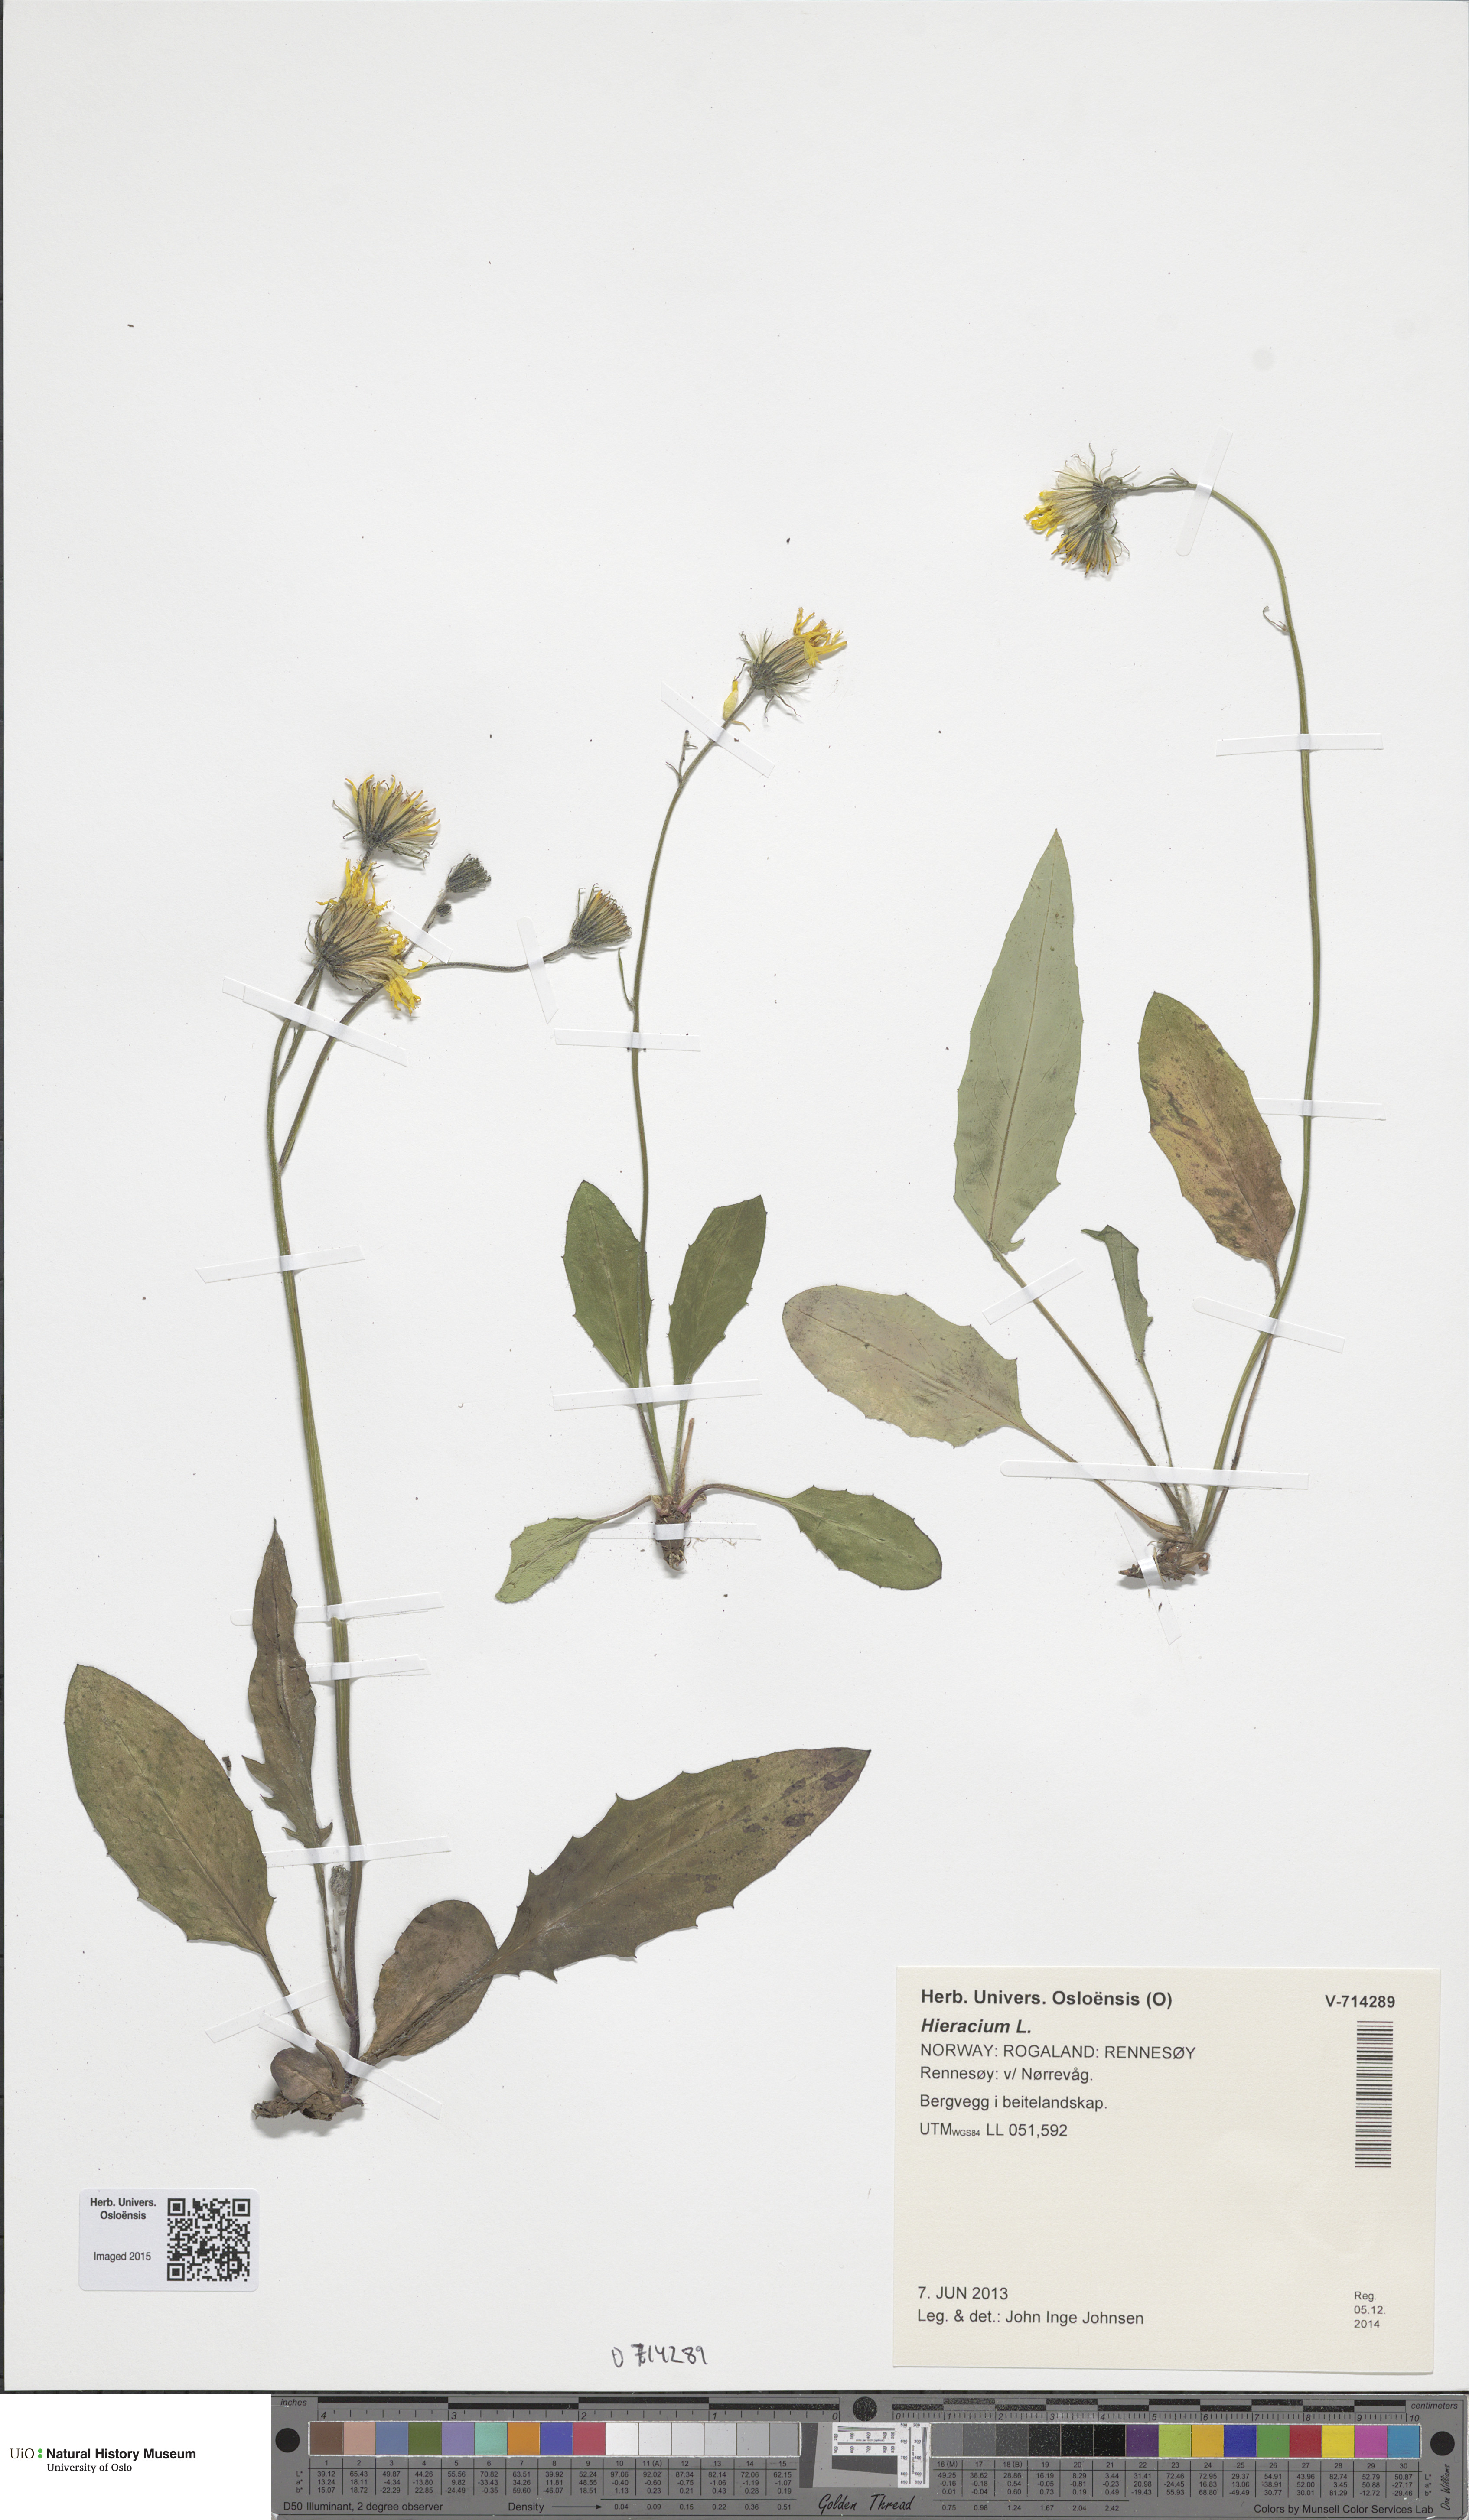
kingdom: Plantae
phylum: Tracheophyta
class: Magnoliopsida
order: Asterales
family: Asteraceae
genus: Hieracium
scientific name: Hieracium
